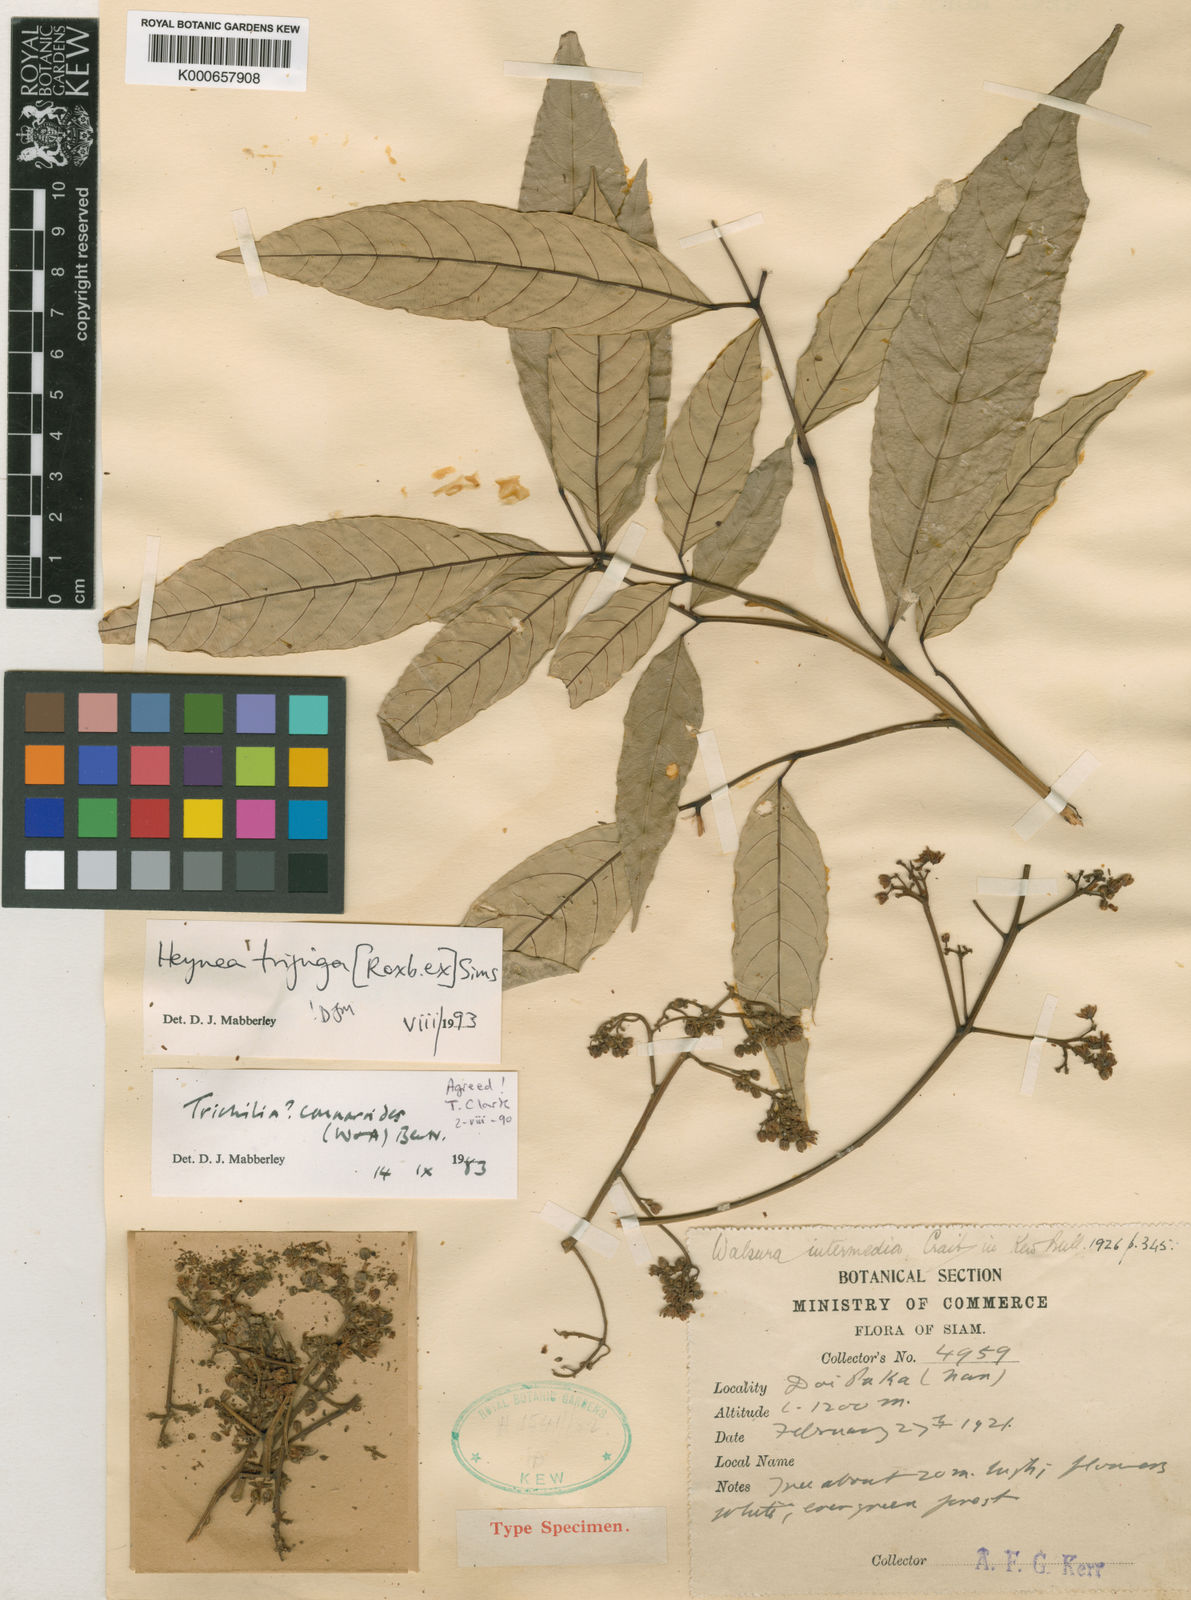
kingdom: Plantae
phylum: Tracheophyta
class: Magnoliopsida
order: Sapindales
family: Meliaceae
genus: Heynea
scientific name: Heynea trijuga
